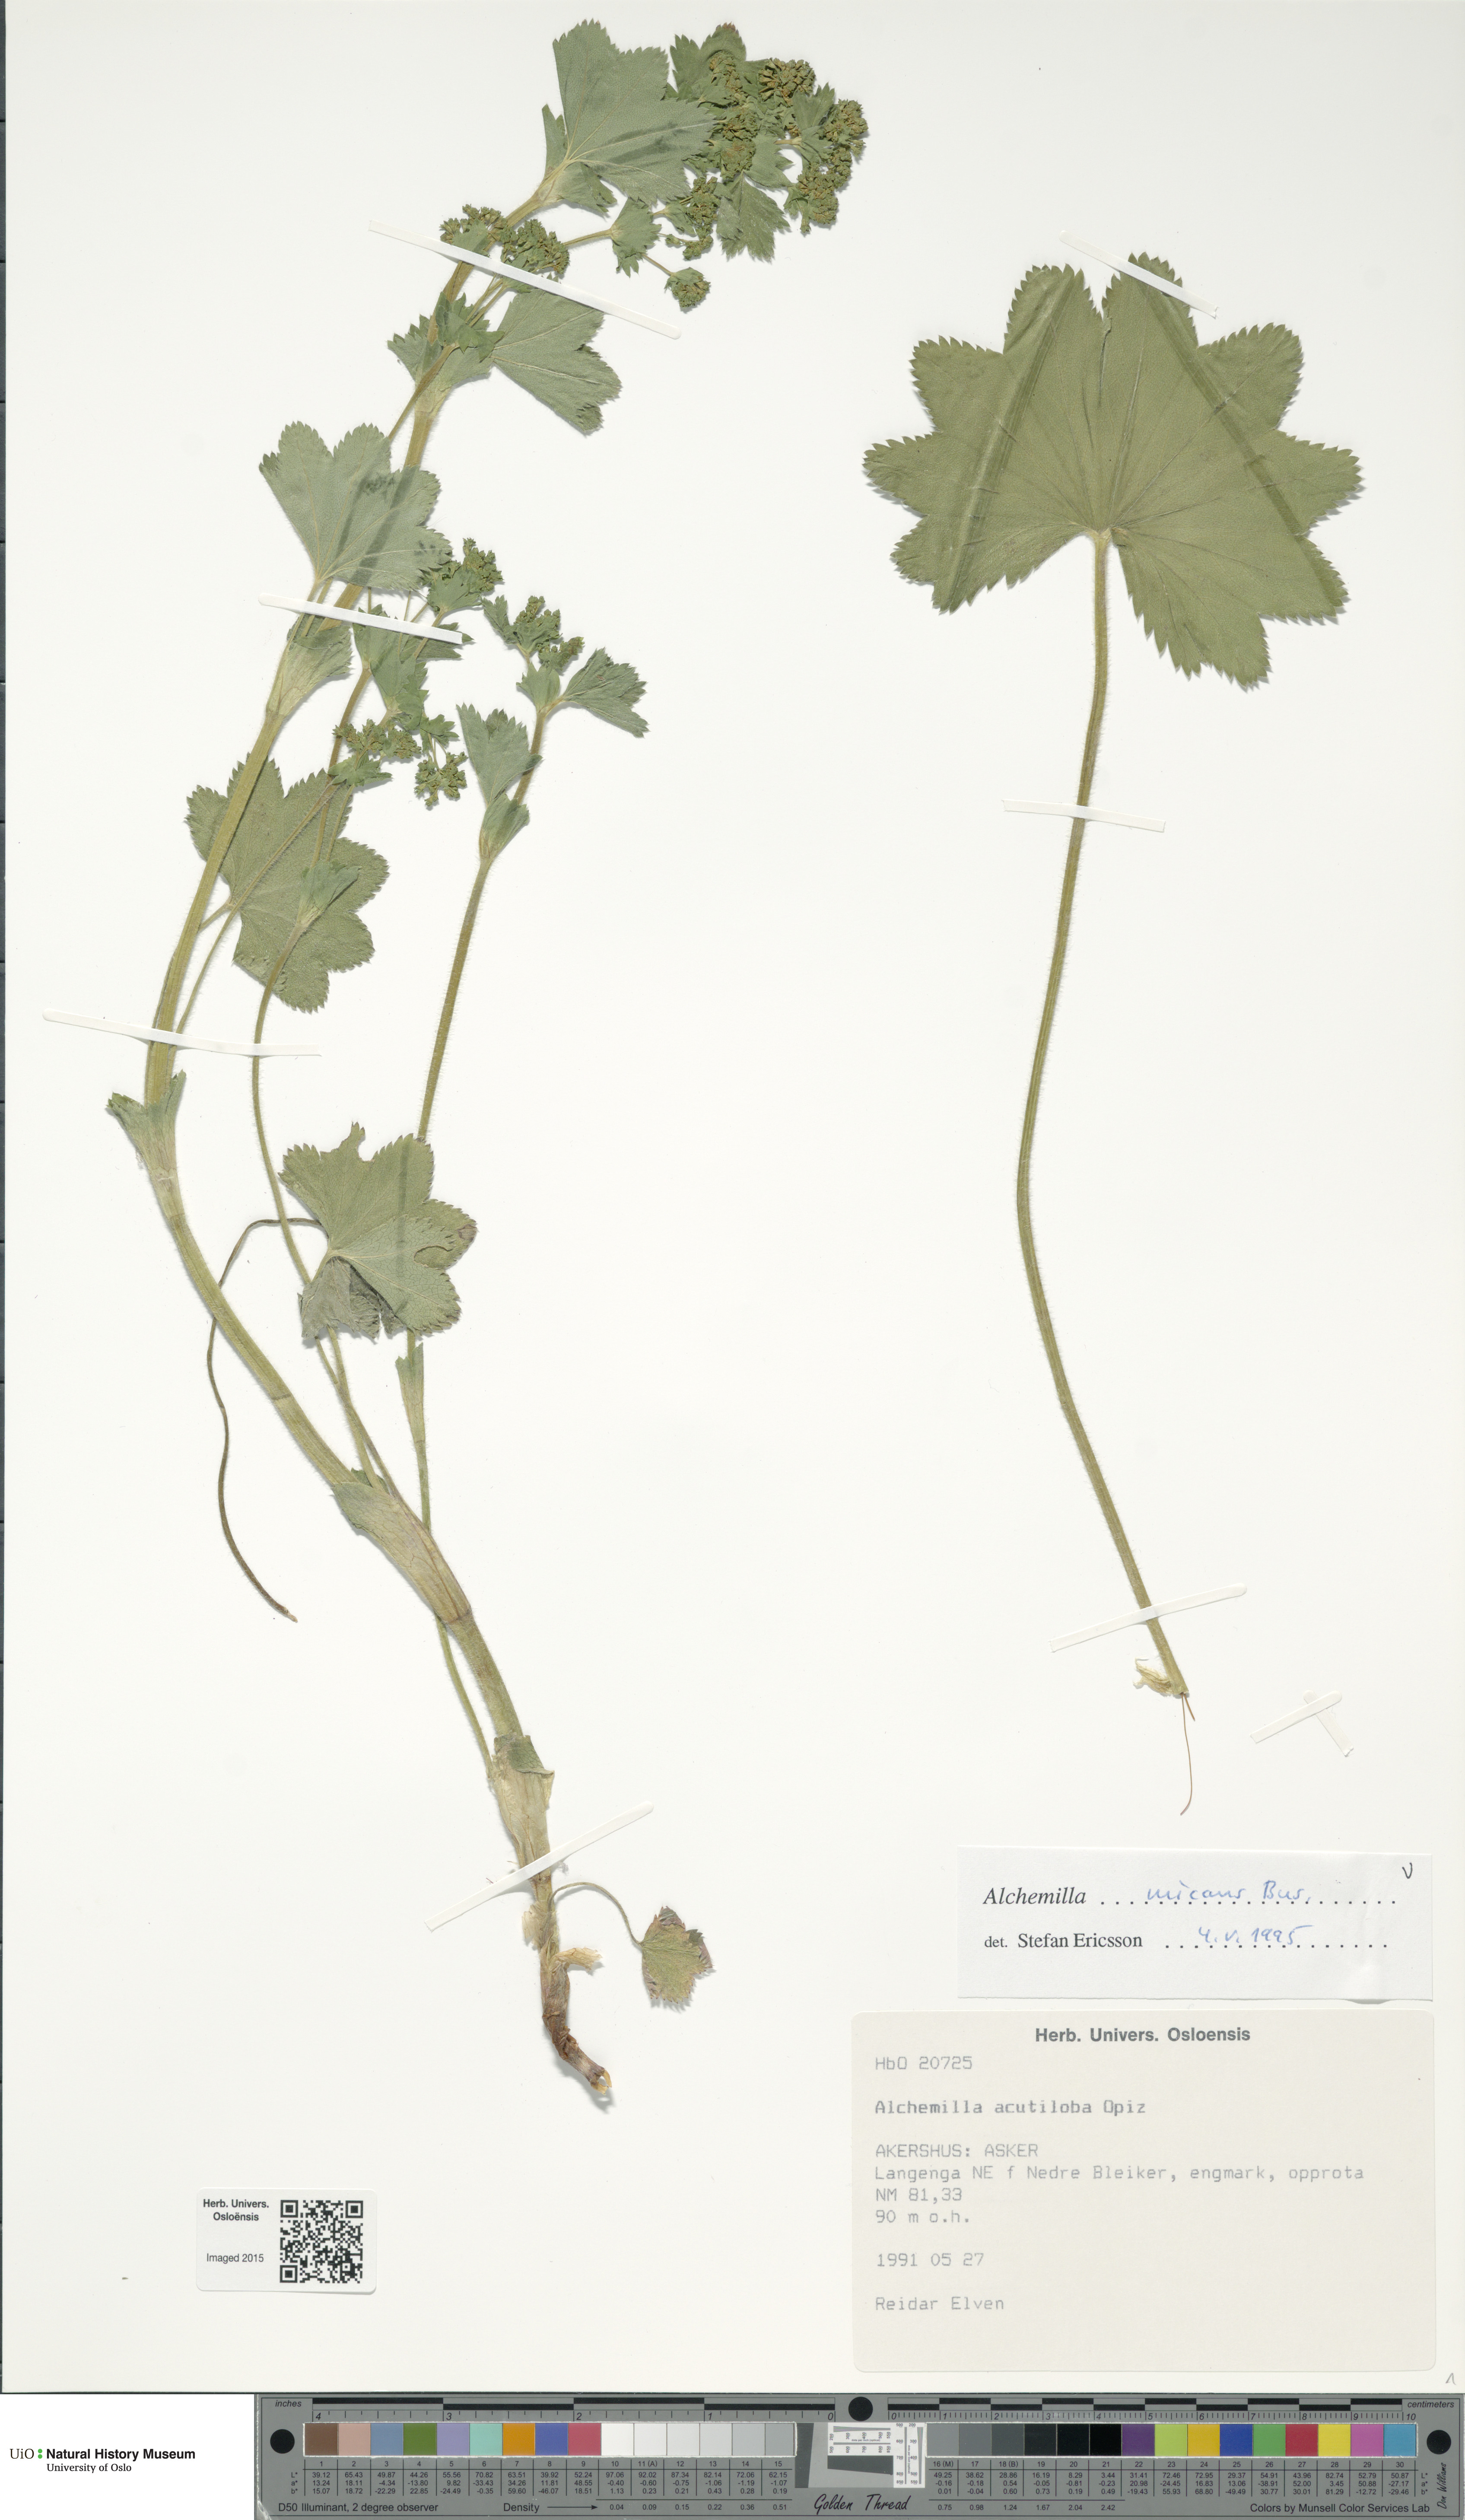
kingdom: Plantae
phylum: Tracheophyta
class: Magnoliopsida
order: Rosales
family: Rosaceae
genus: Alchemilla
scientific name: Alchemilla micans
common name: Gleaming lady's mantle
